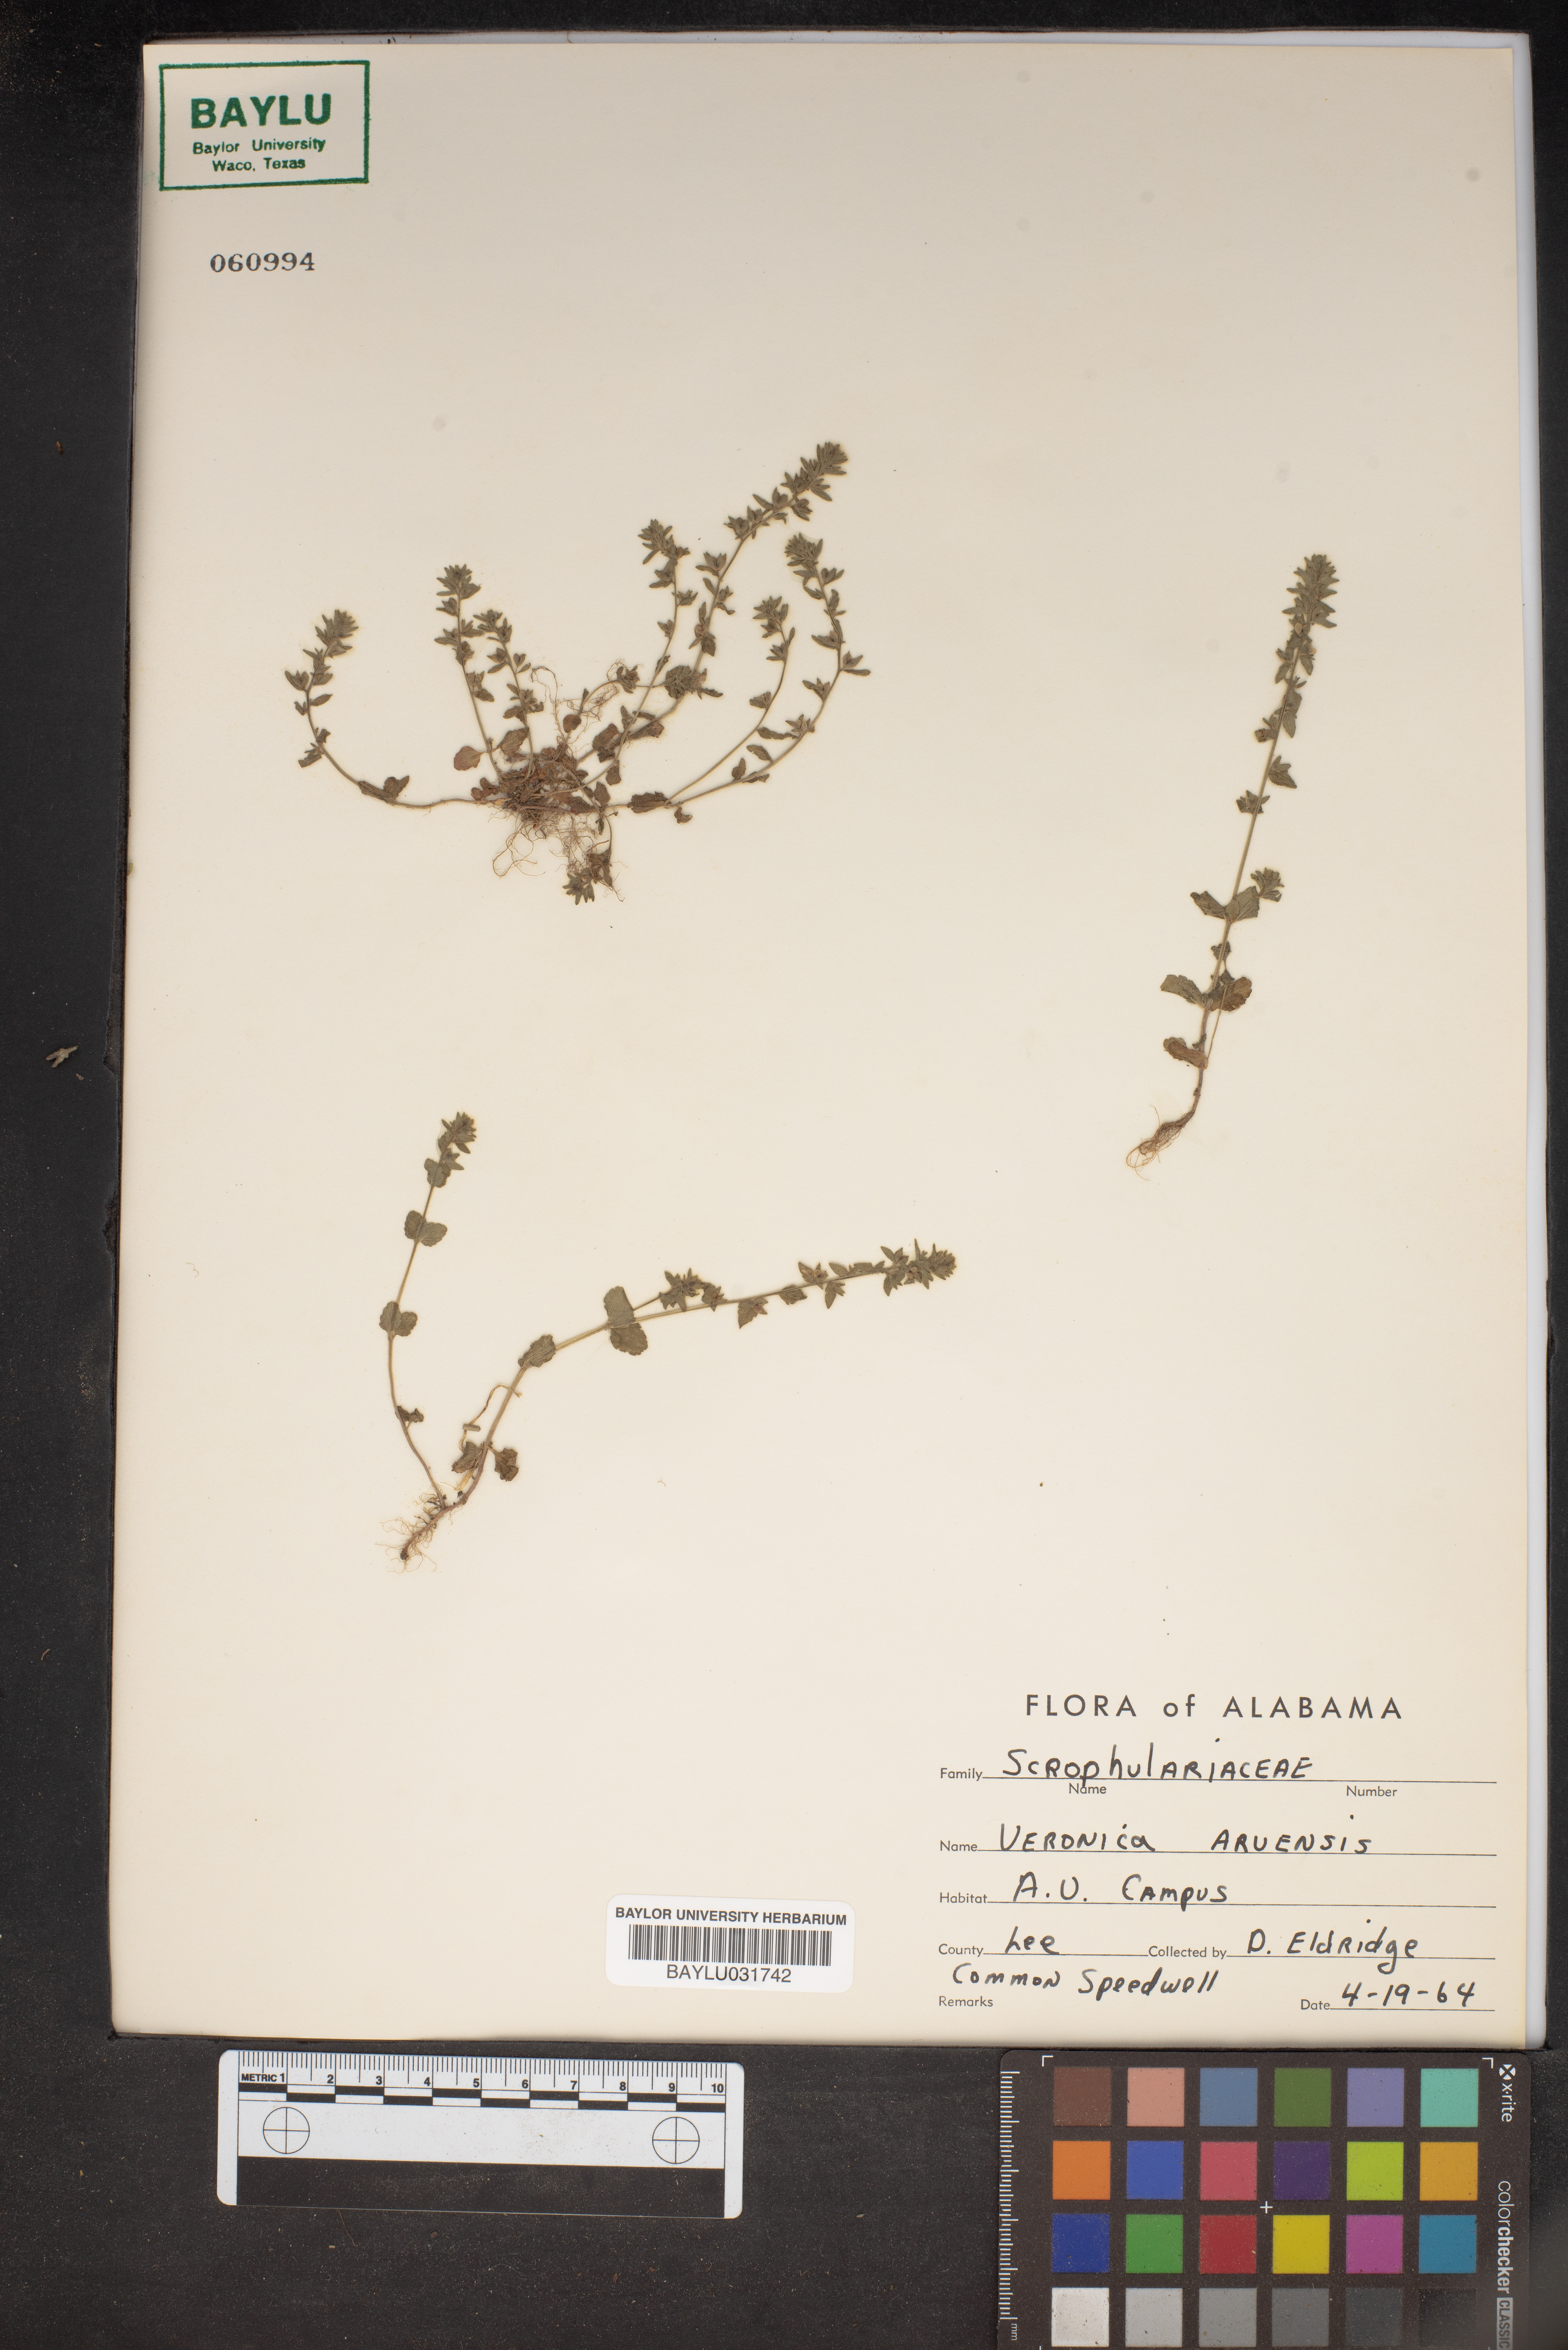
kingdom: Plantae
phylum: Tracheophyta
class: Magnoliopsida
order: Lamiales
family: Plantaginaceae
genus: Veronica
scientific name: Veronica arvensis
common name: Corn speedwell
